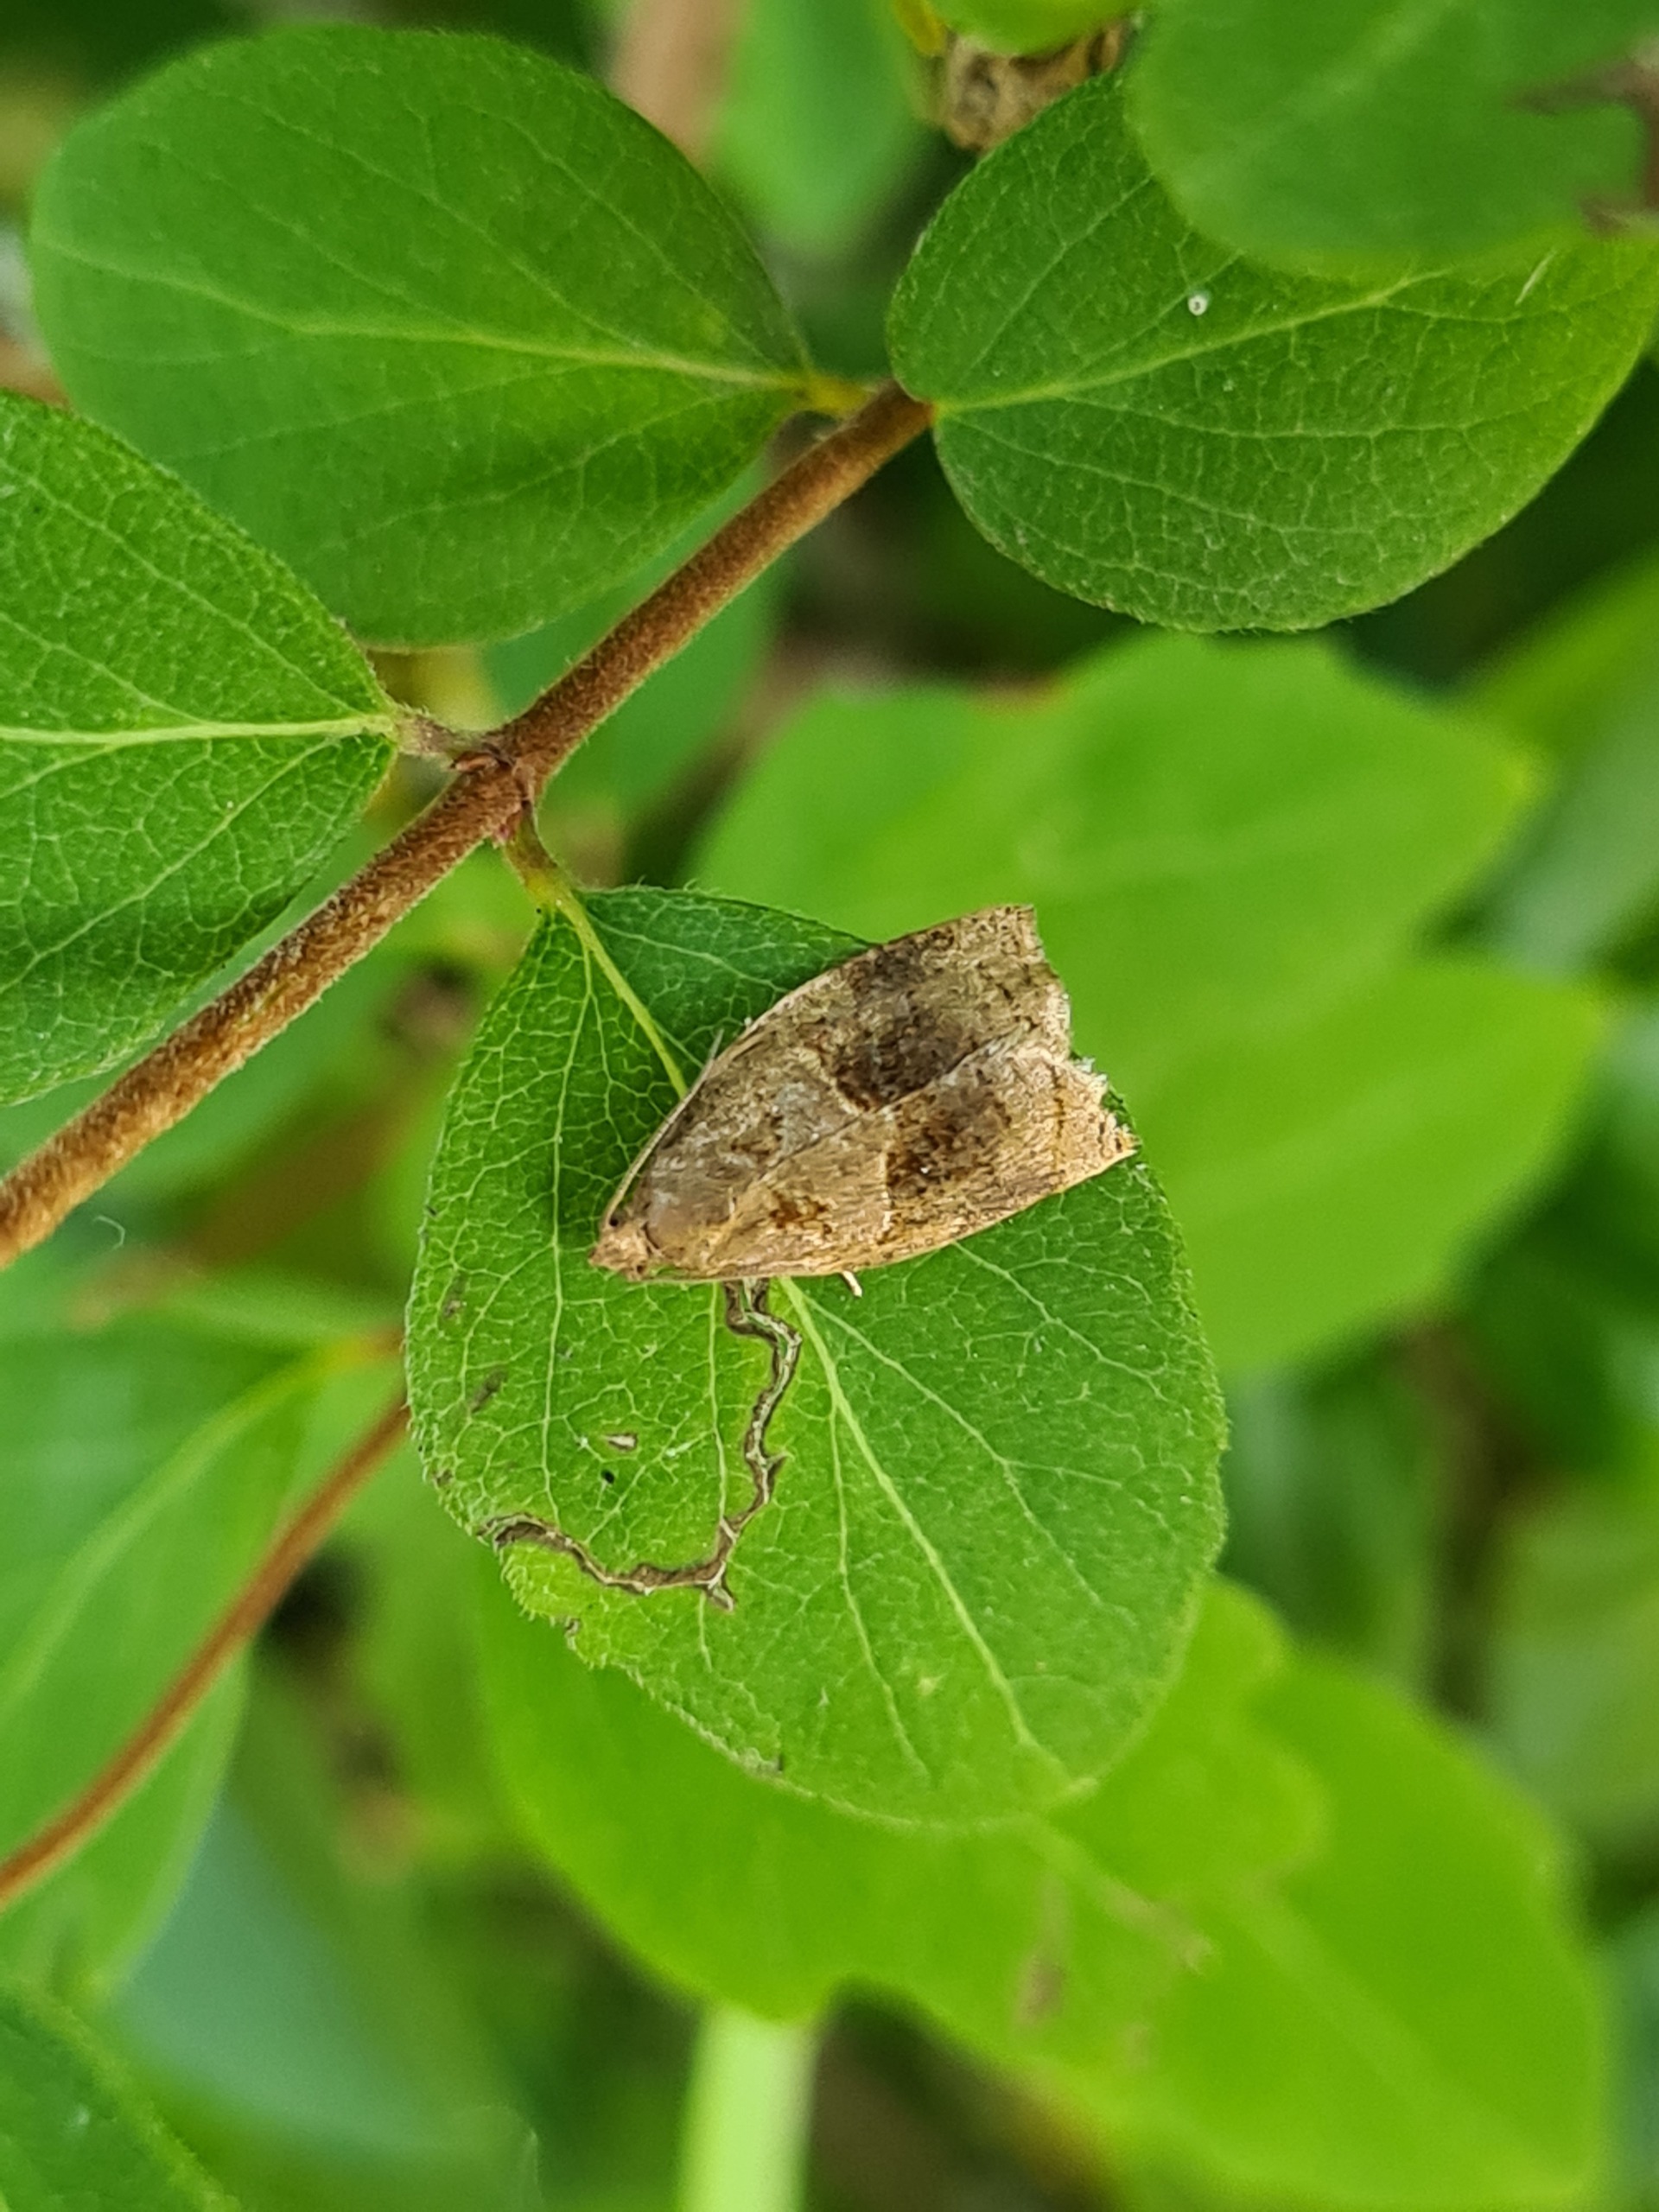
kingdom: Animalia
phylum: Arthropoda
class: Insecta
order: Lepidoptera
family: Tortricidae
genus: Archips
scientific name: Archips rosana
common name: Busksommervikler
